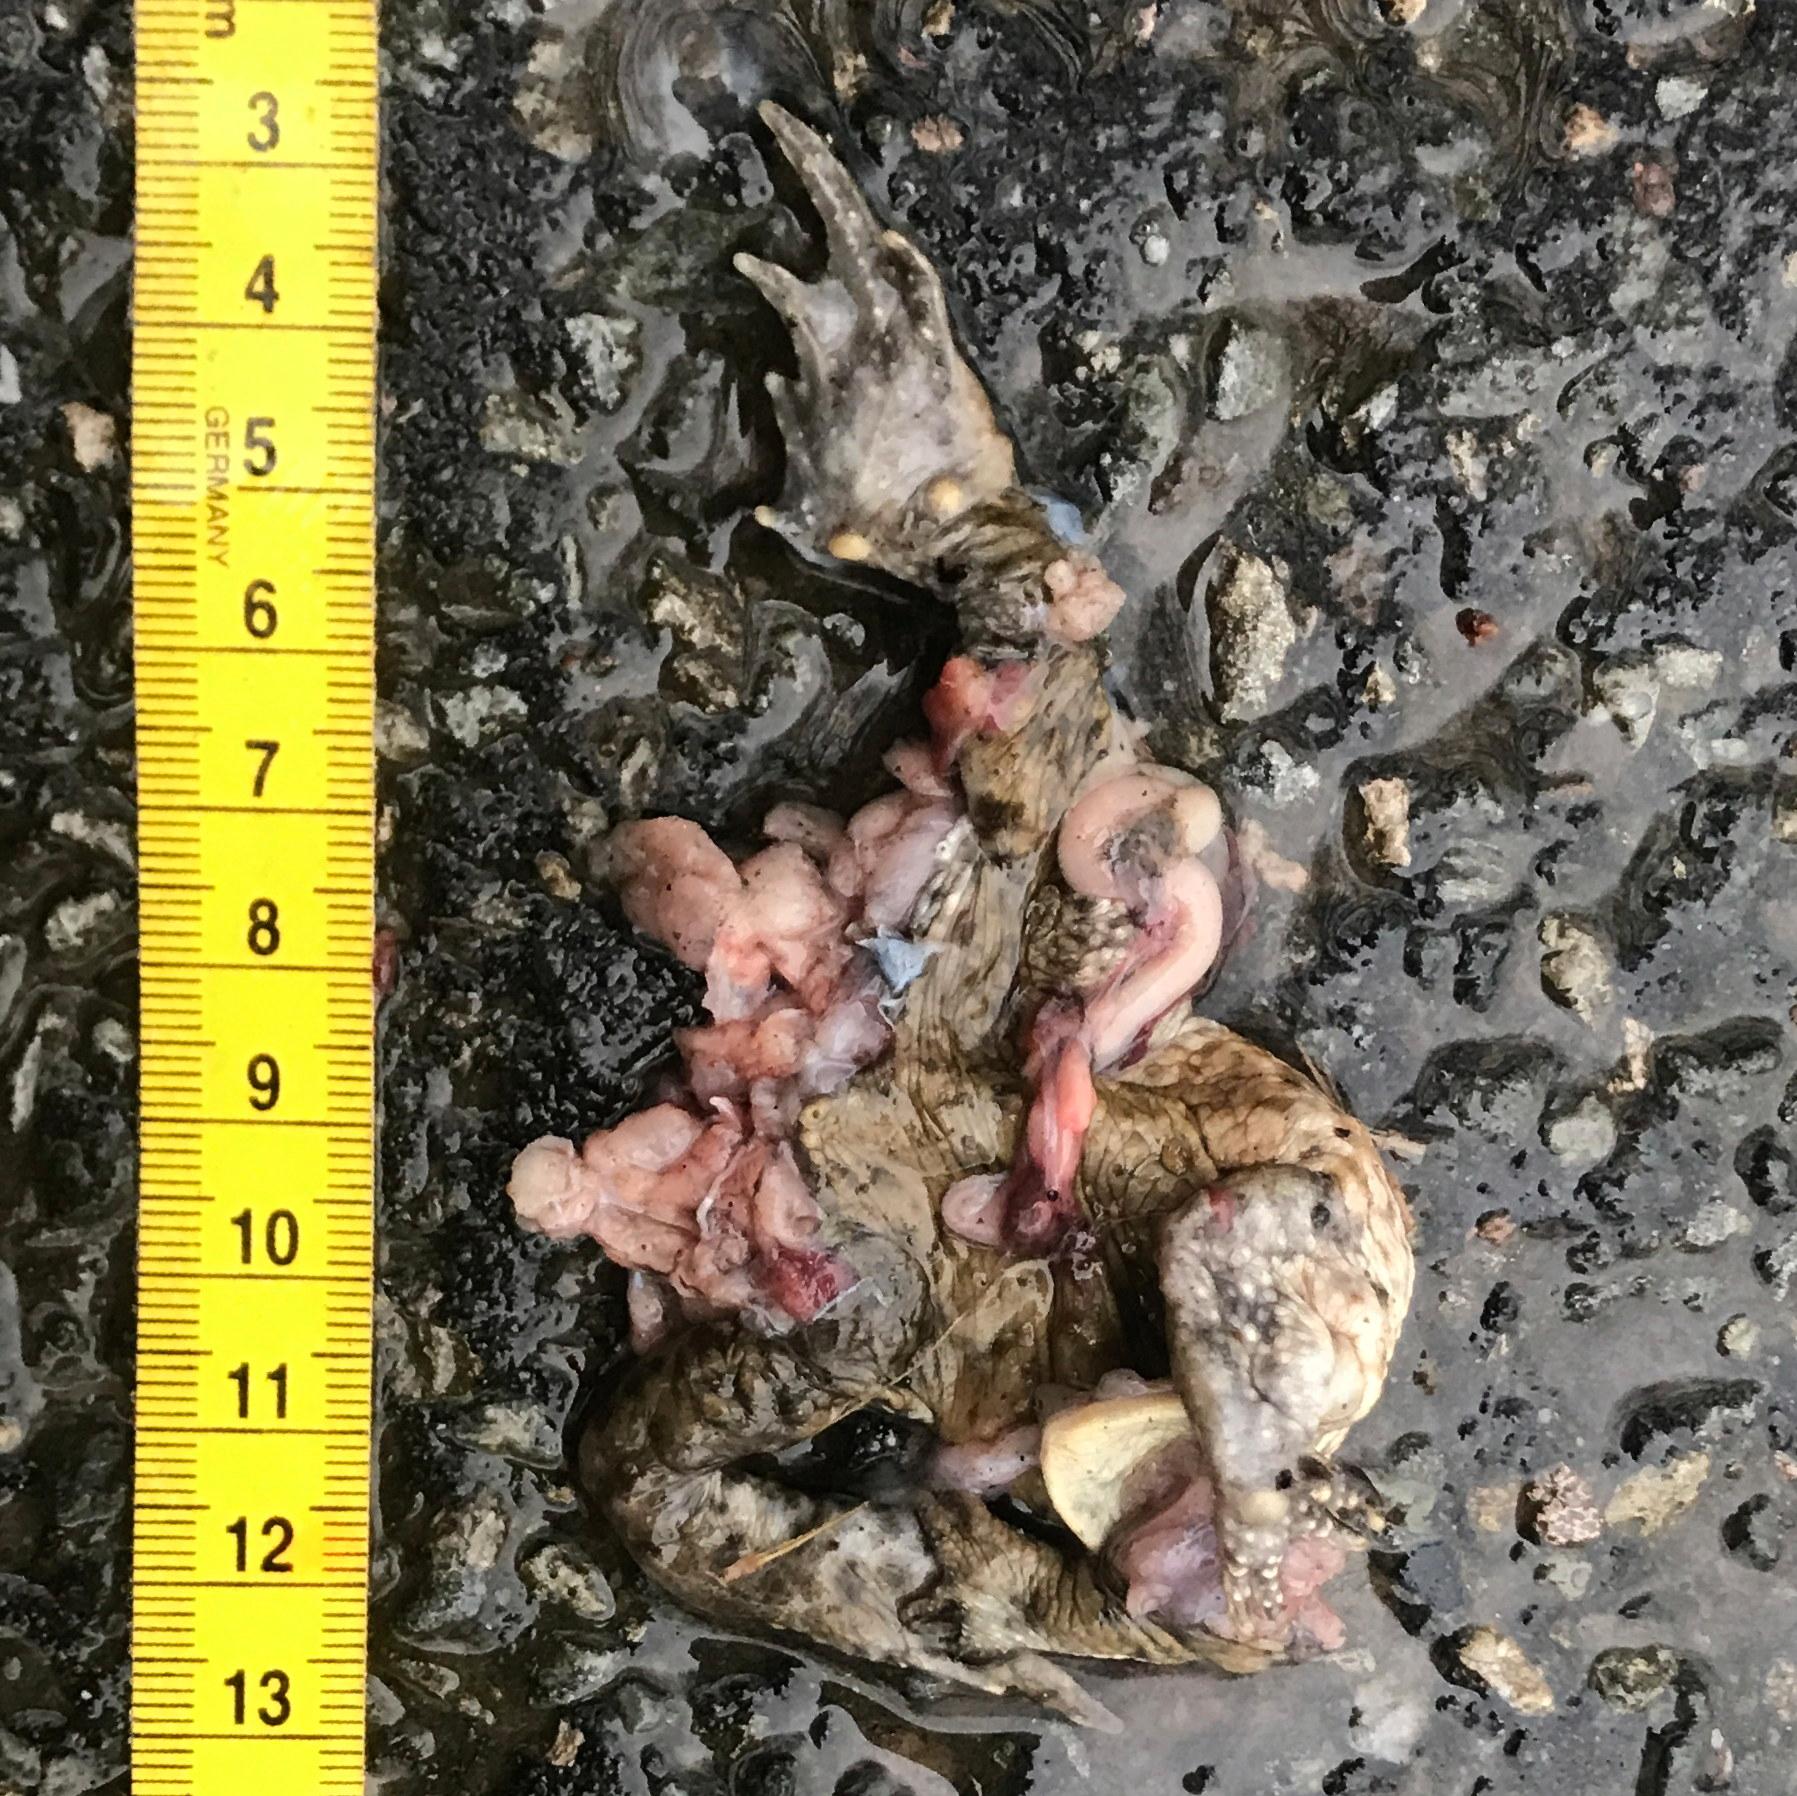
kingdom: Animalia
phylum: Chordata
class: Amphibia
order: Anura
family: Bufonidae
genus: Bufo
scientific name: Bufo bufo
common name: Common toad
